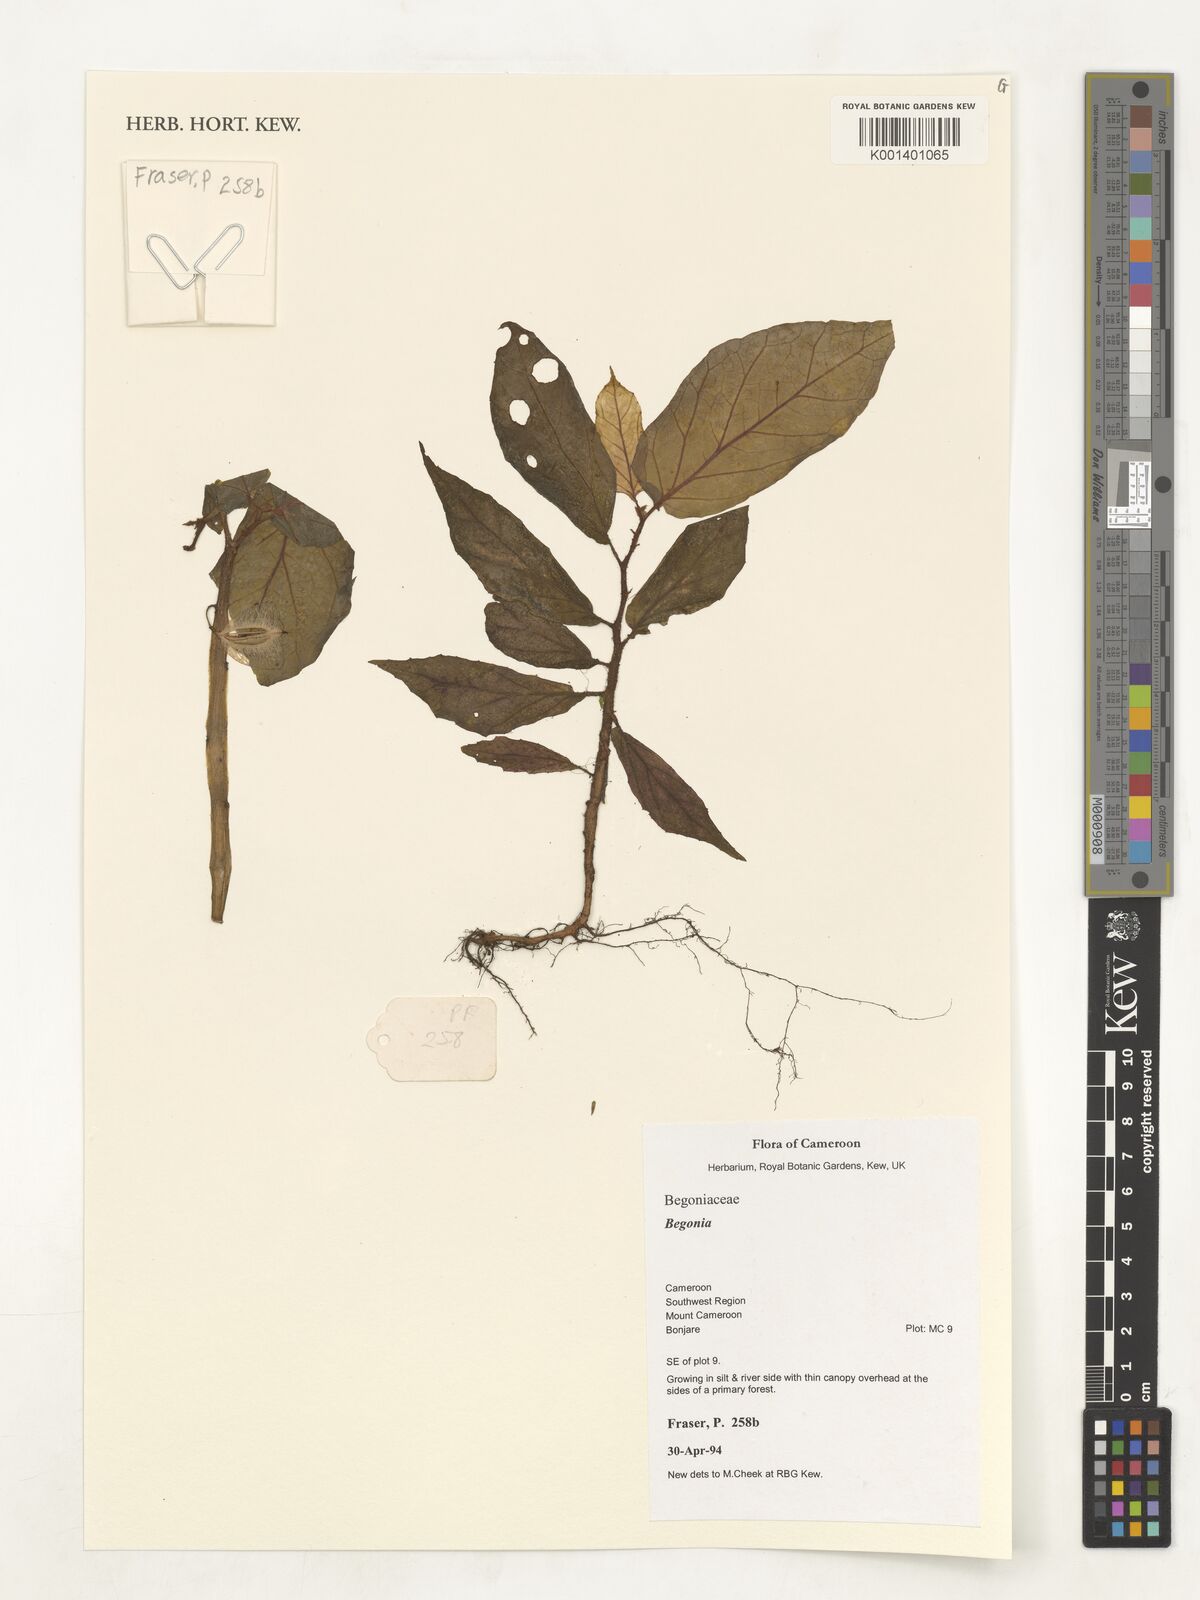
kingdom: Plantae
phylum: Tracheophyta
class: Magnoliopsida
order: Cucurbitales
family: Begoniaceae
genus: Begonia
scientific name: Begonia
